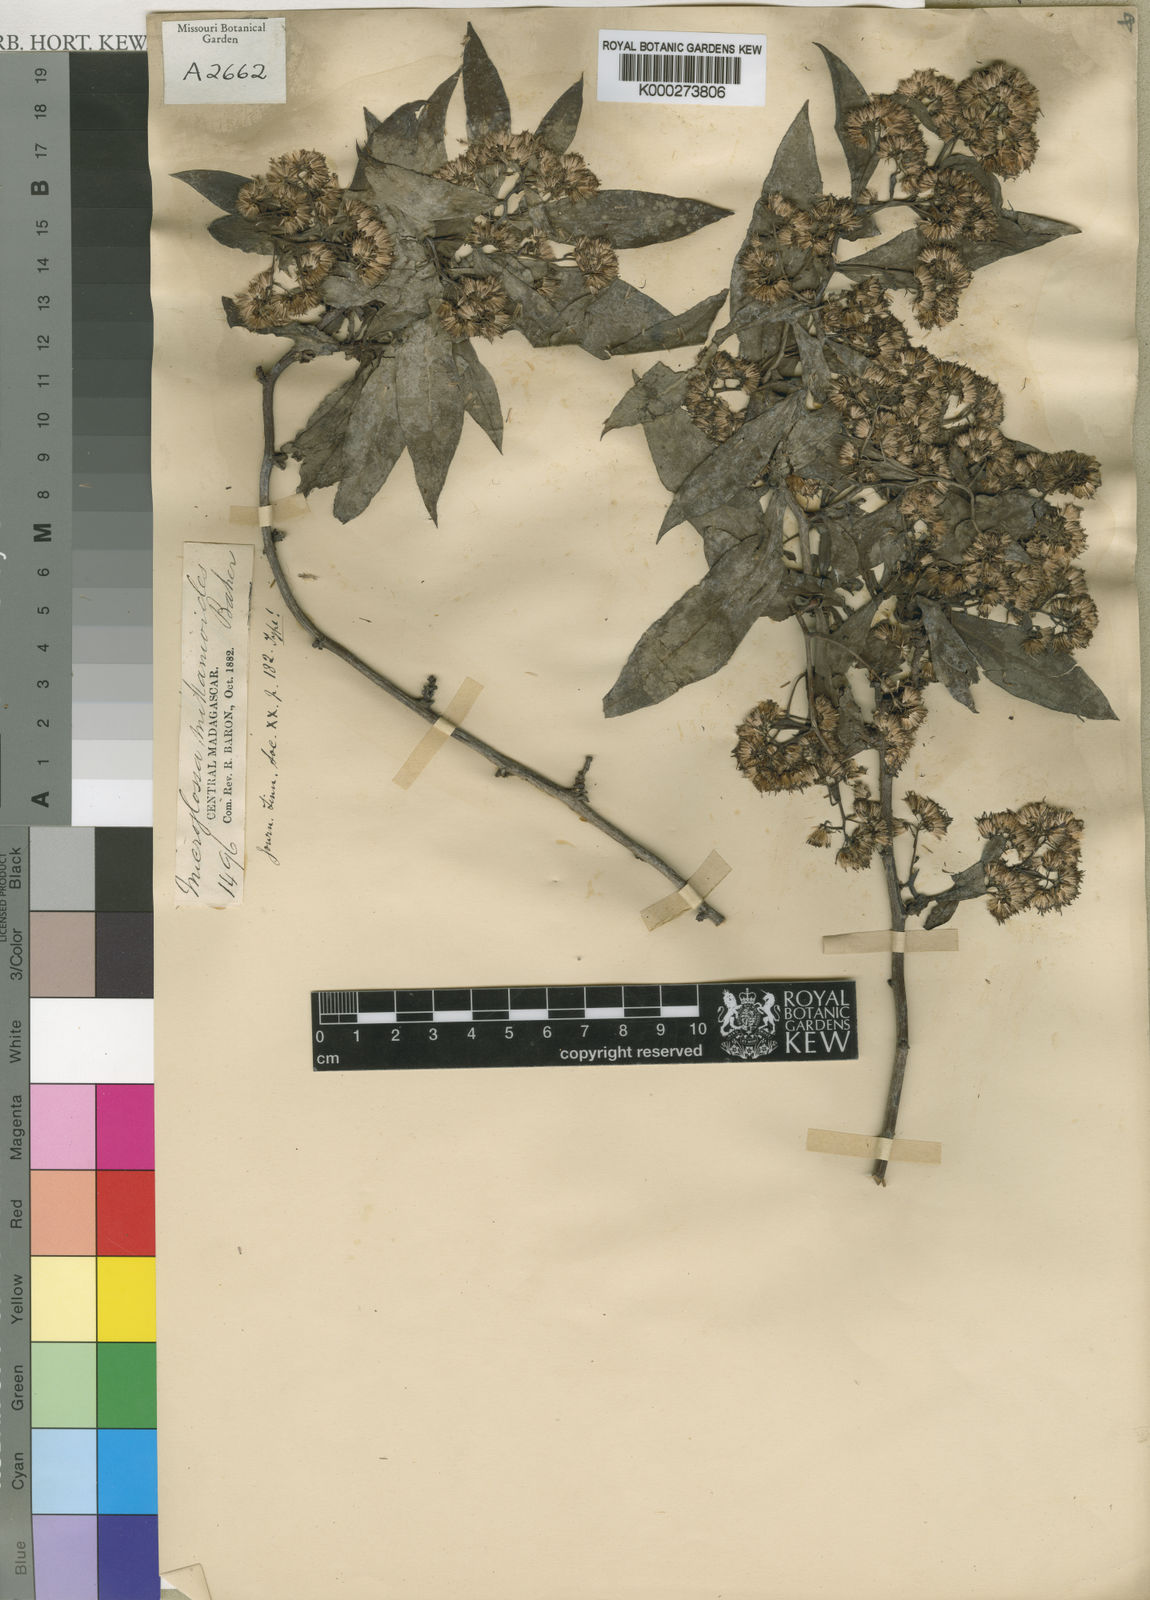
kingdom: Plantae
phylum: Tracheophyta
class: Magnoliopsida
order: Asterales
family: Asteraceae
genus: Psiadia
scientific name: Psiadia lucida
